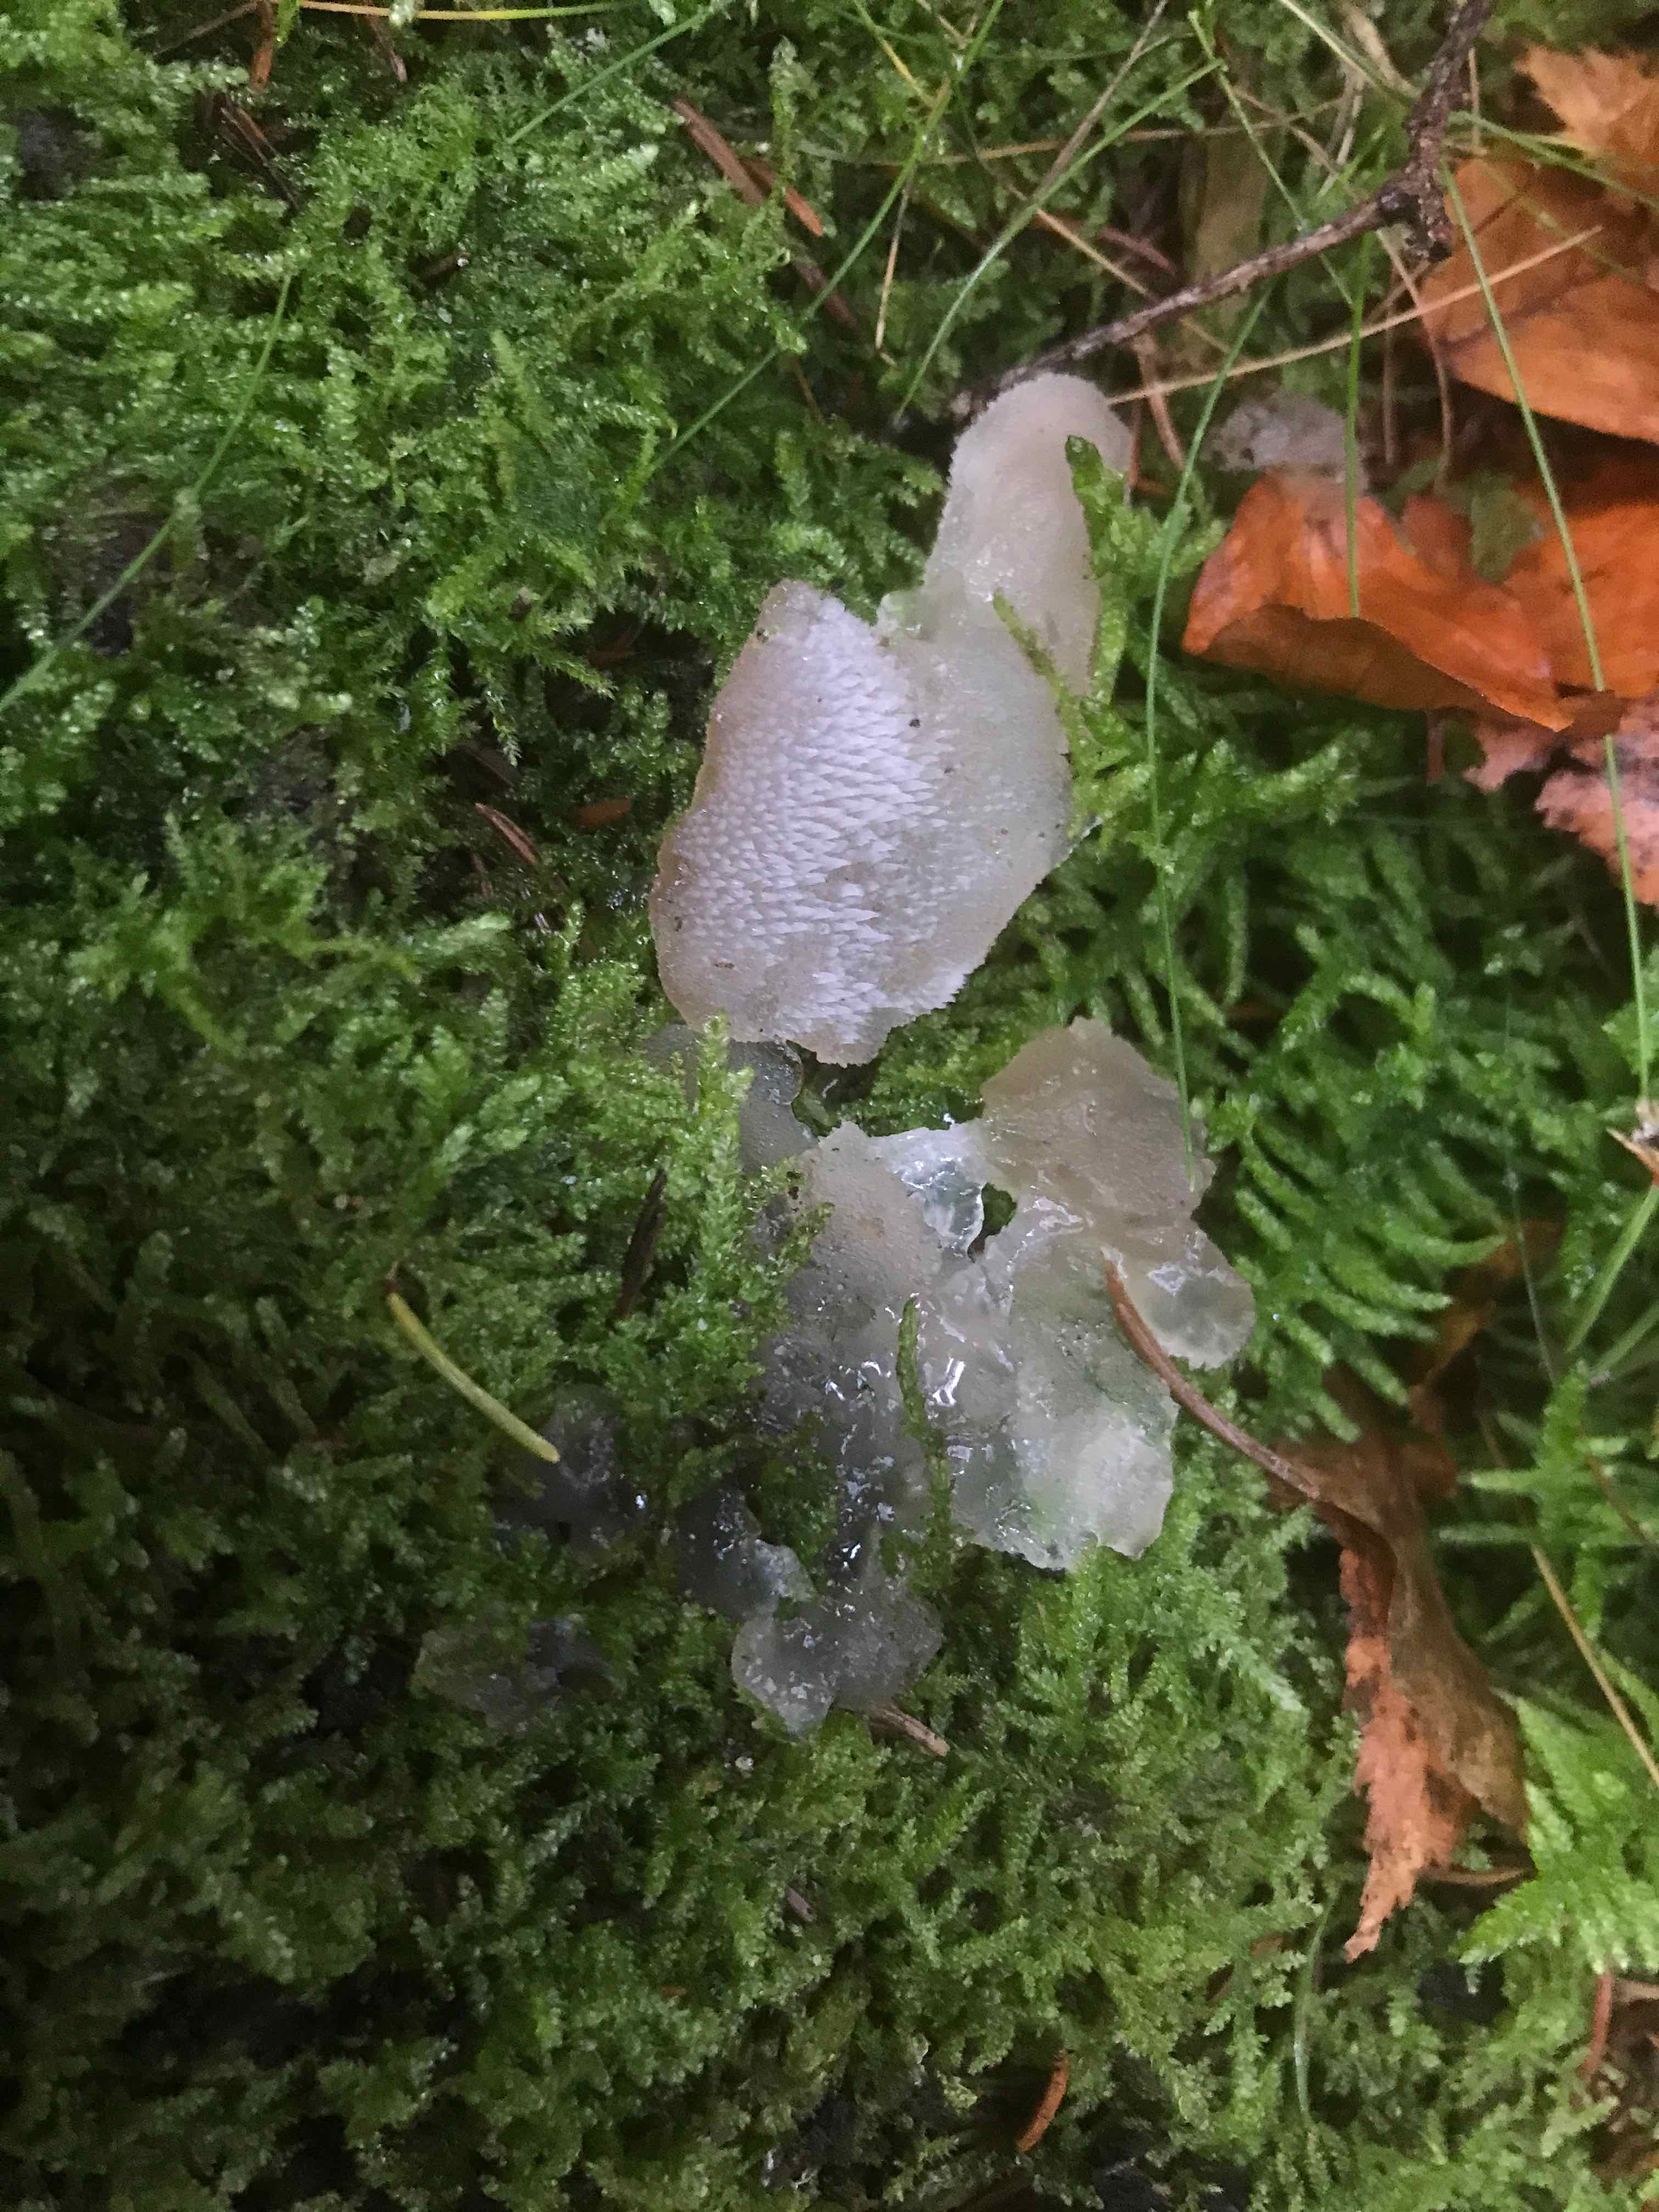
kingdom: Fungi
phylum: Basidiomycota
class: Agaricomycetes
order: Auriculariales
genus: Pseudohydnum
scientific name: Pseudohydnum gelatinosum
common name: bævretand
